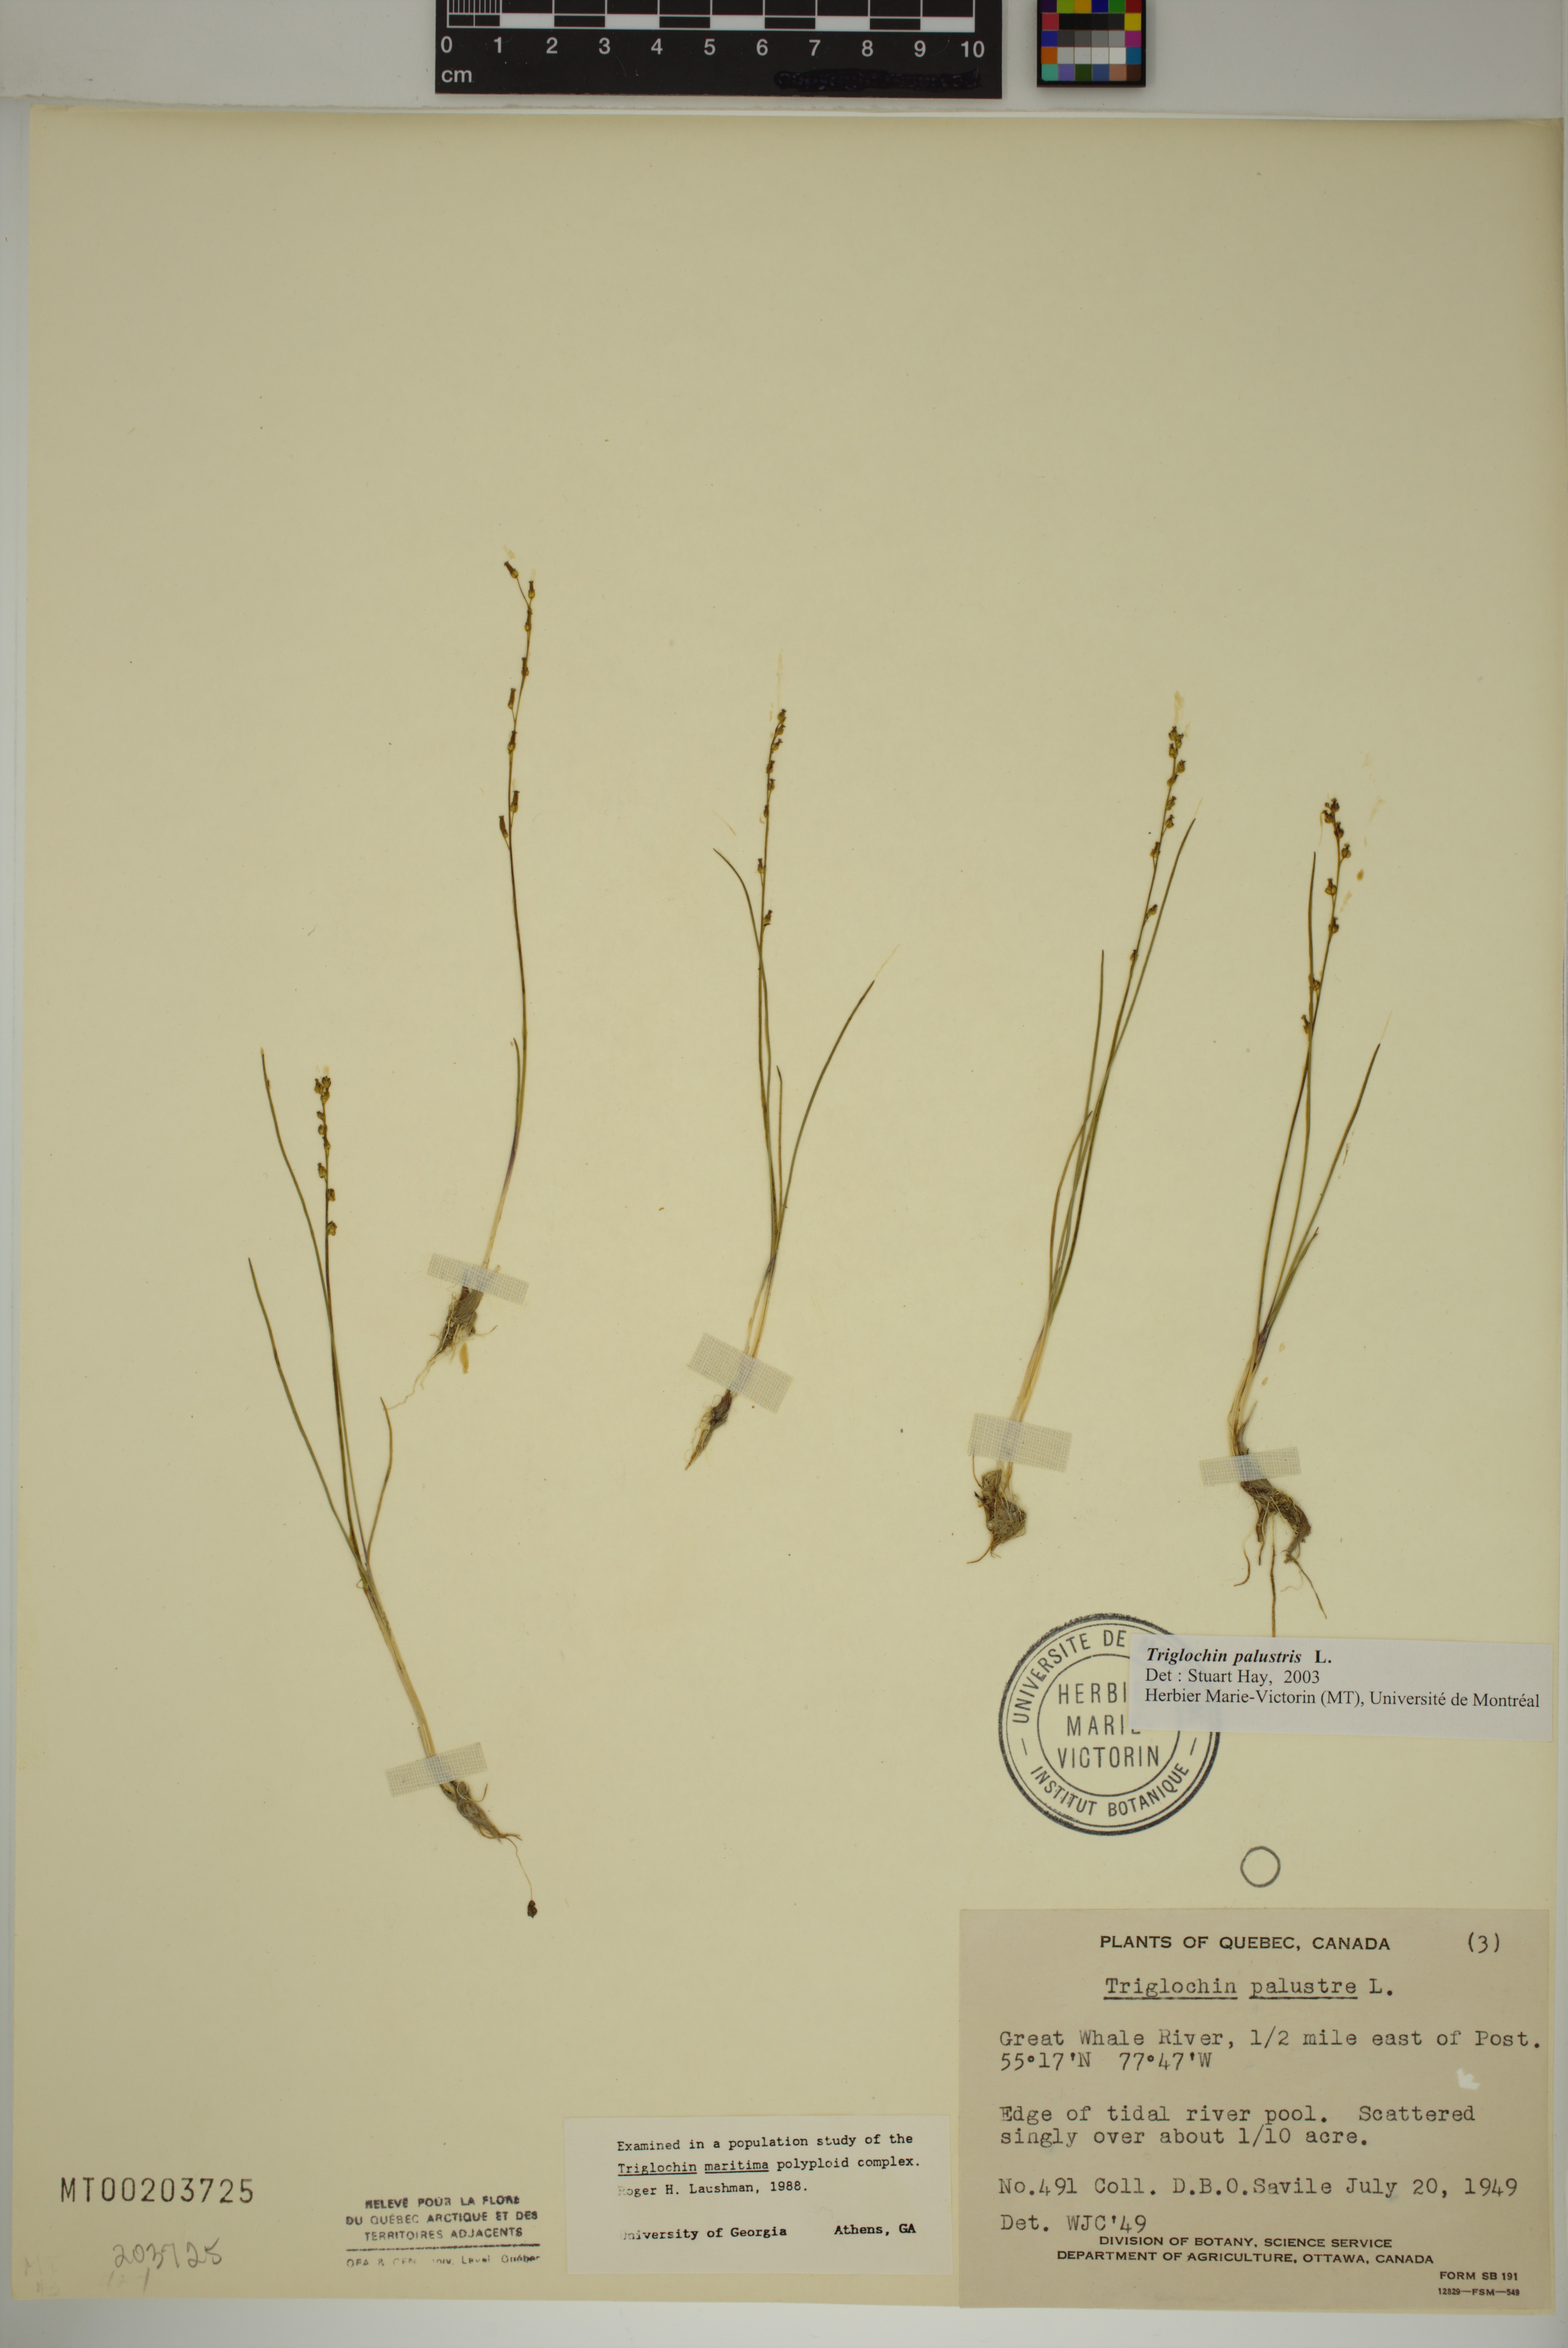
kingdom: Plantae
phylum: Tracheophyta
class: Liliopsida
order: Alismatales
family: Juncaginaceae
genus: Triglochin
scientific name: Triglochin palustris
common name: Marsh arrowgrass
